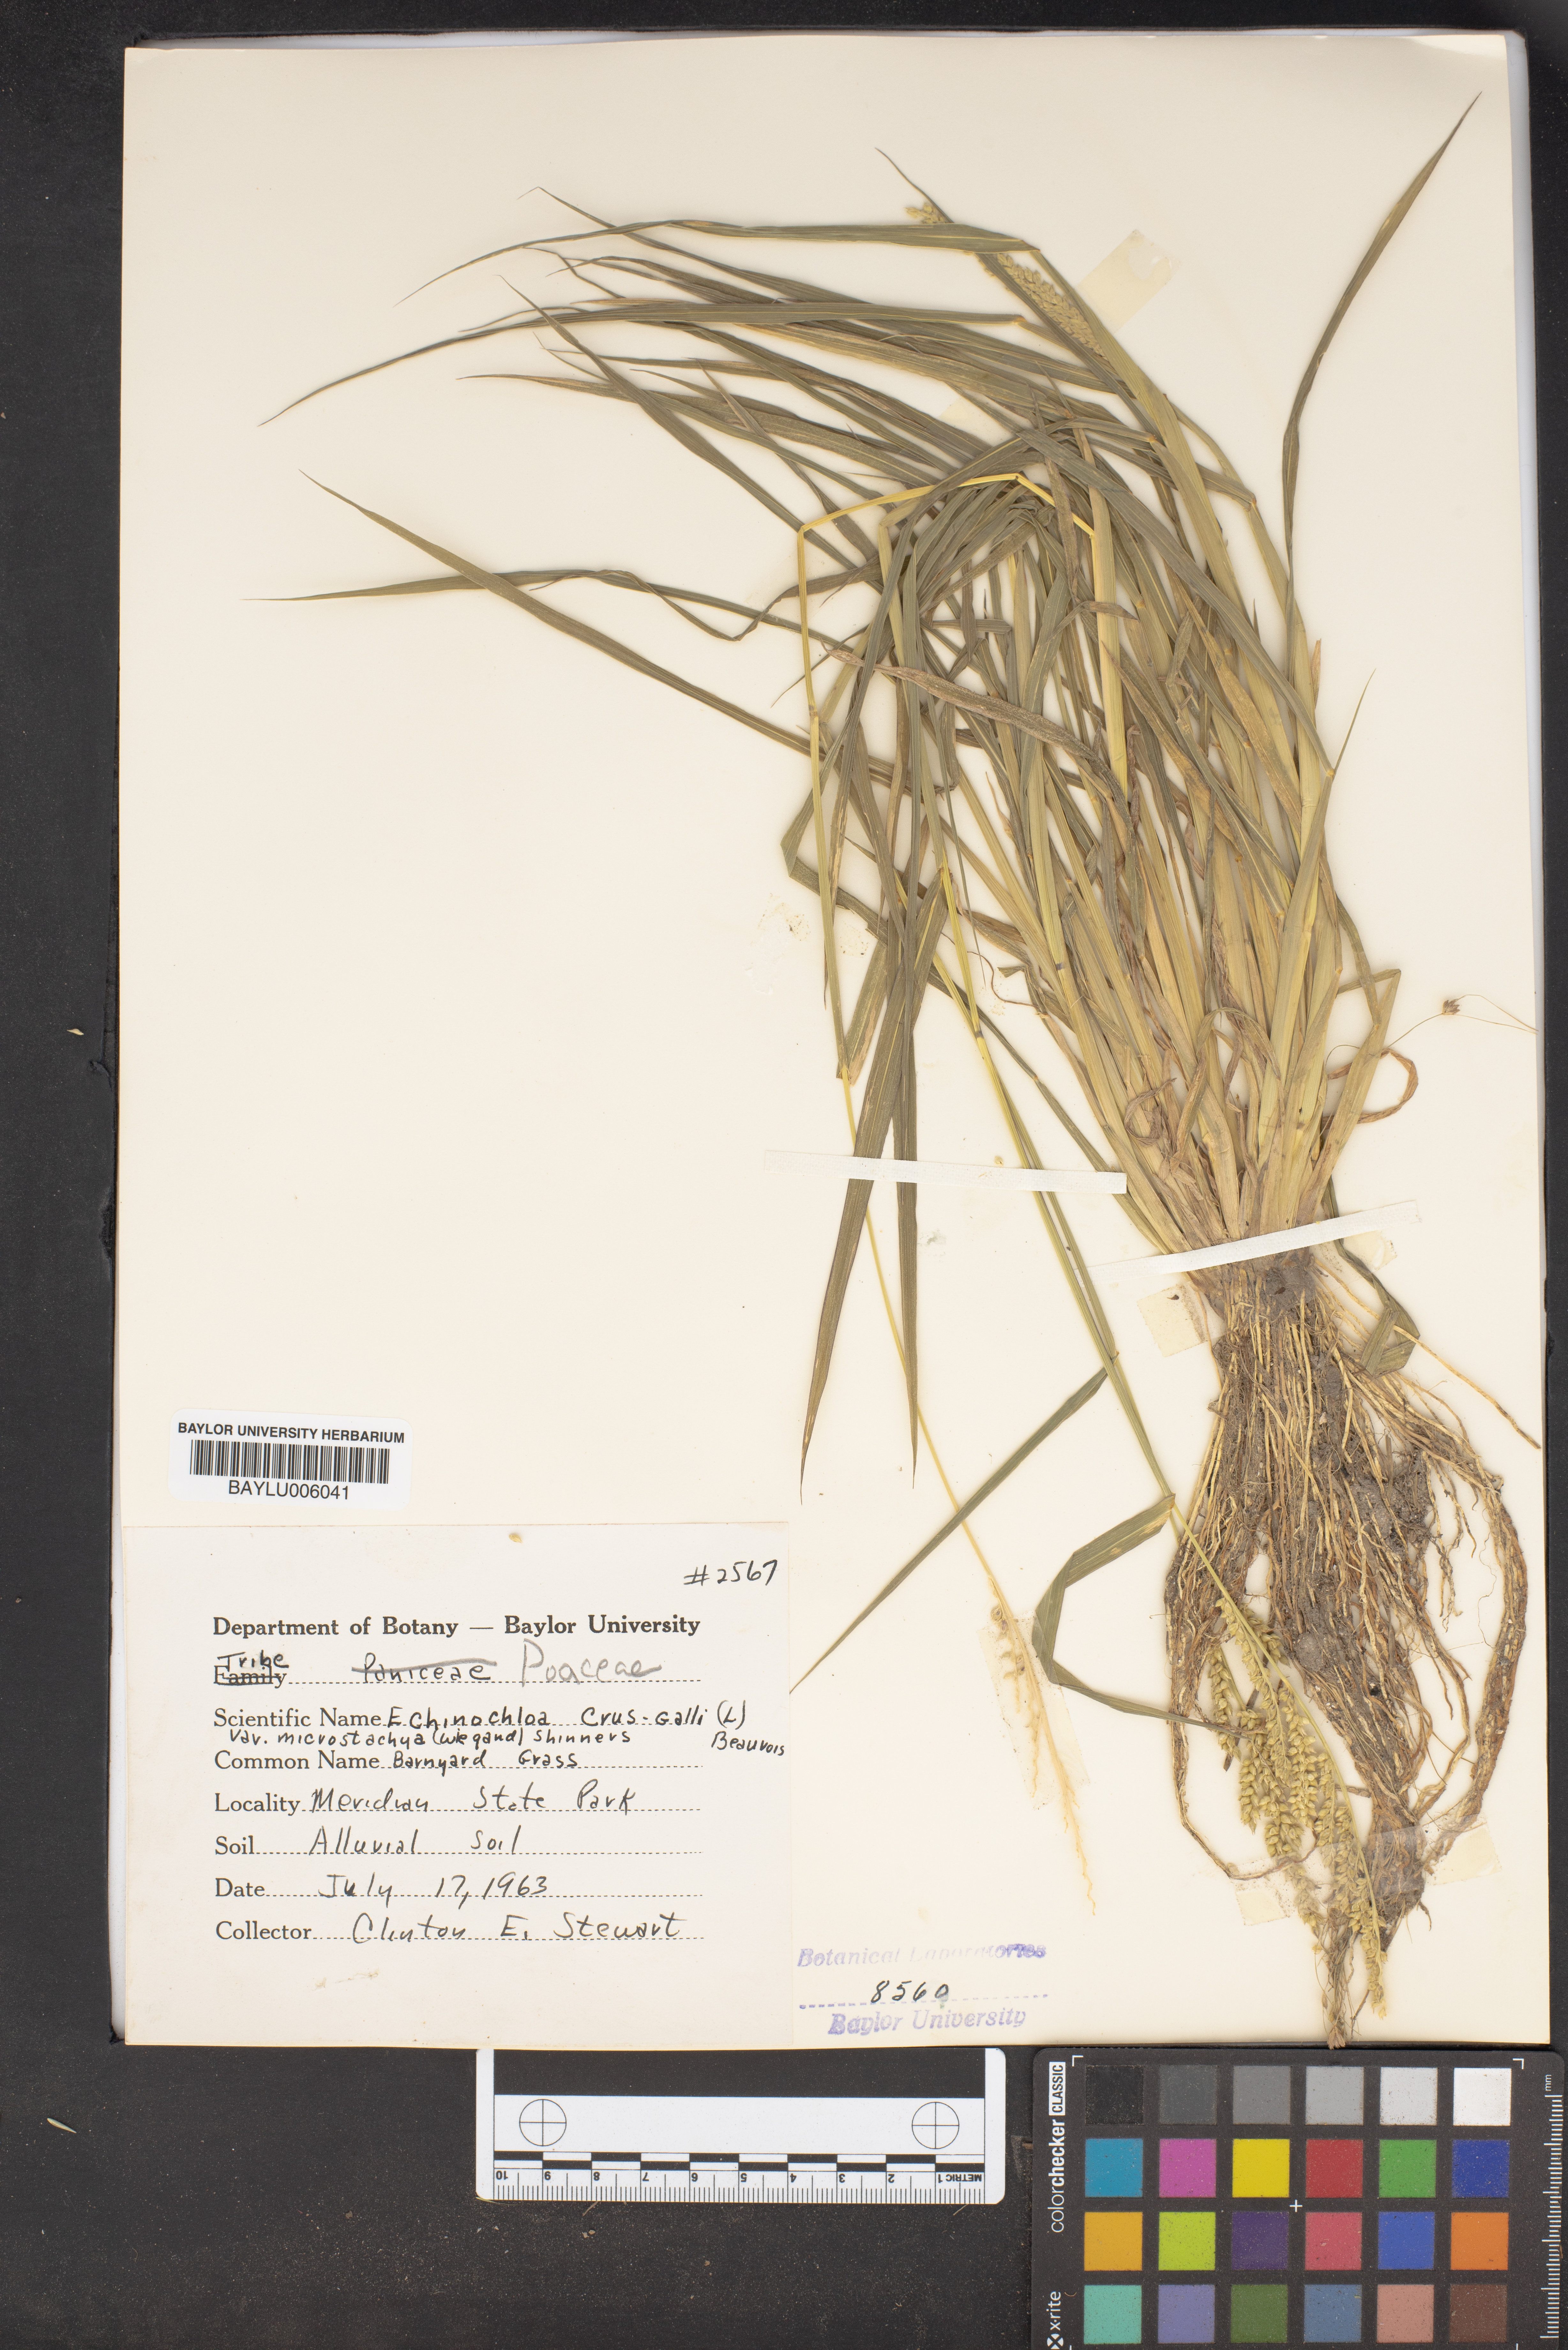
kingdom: Plantae
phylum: Tracheophyta
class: Liliopsida
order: Poales
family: Poaceae
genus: Echinochloa
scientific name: Echinochloa muricata
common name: American barnyard grass
